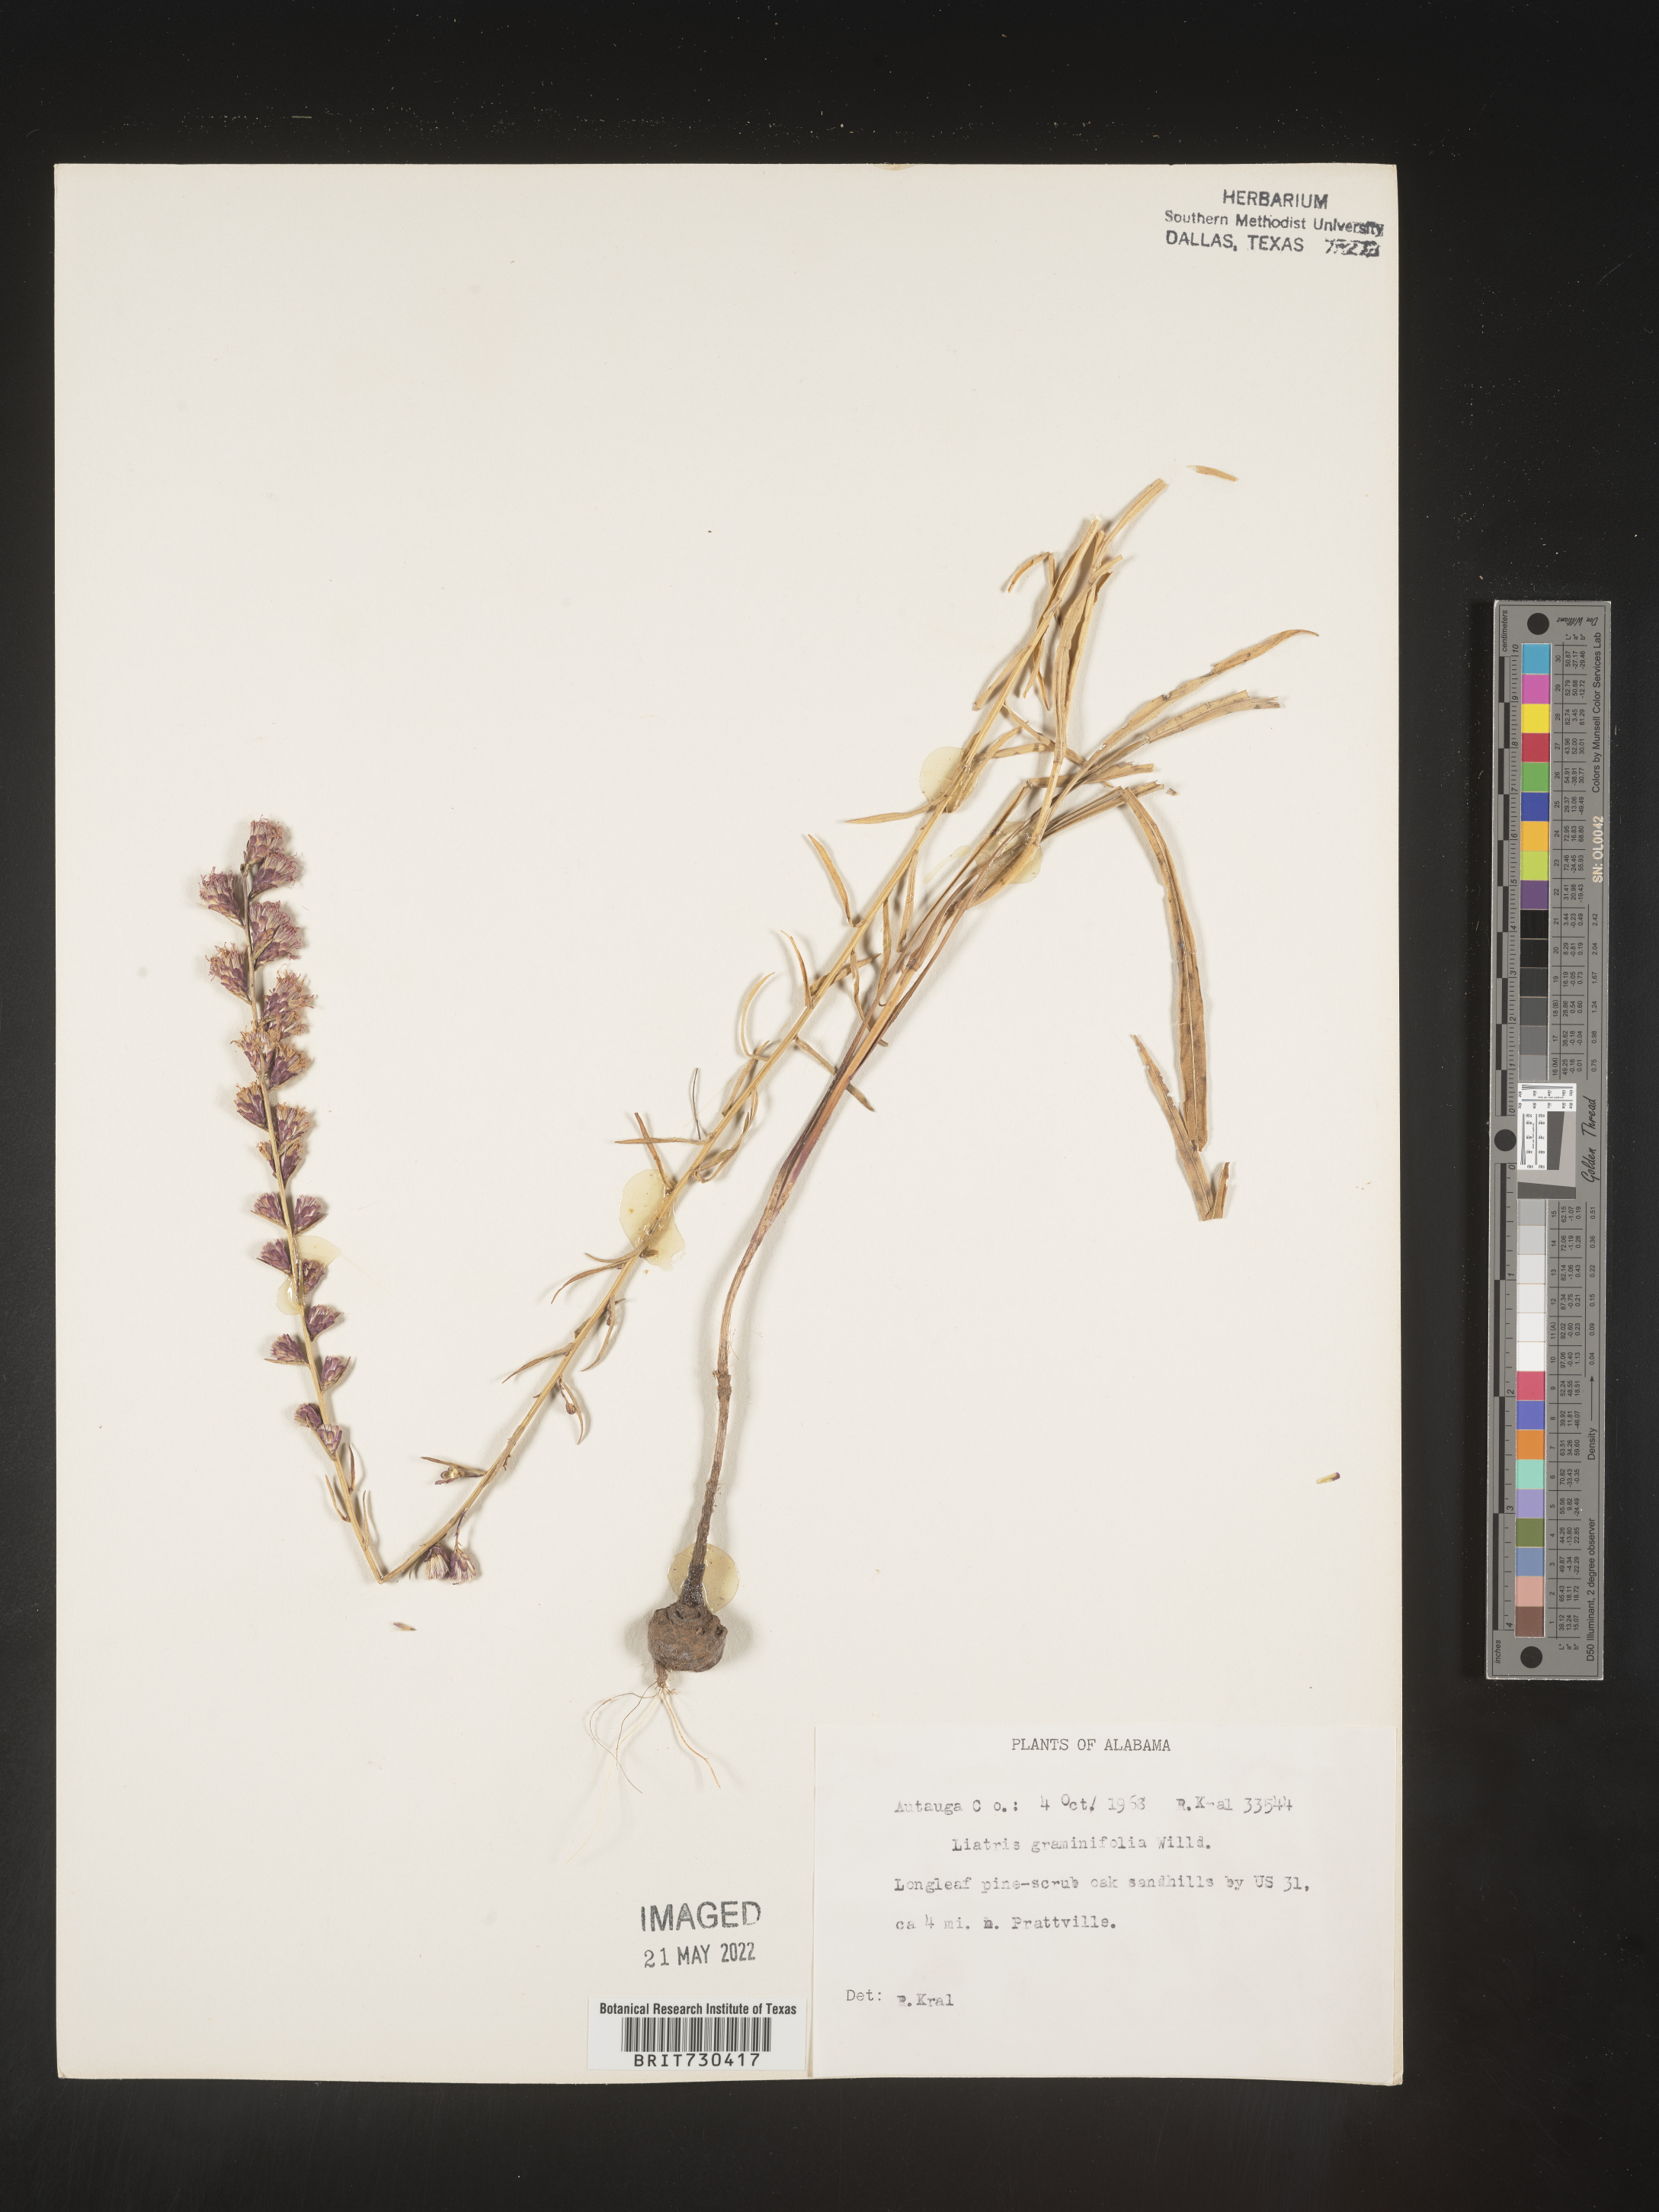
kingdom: Plantae
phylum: Tracheophyta
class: Magnoliopsida
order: Asterales
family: Asteraceae
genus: Liatris
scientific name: Liatris elegantula
